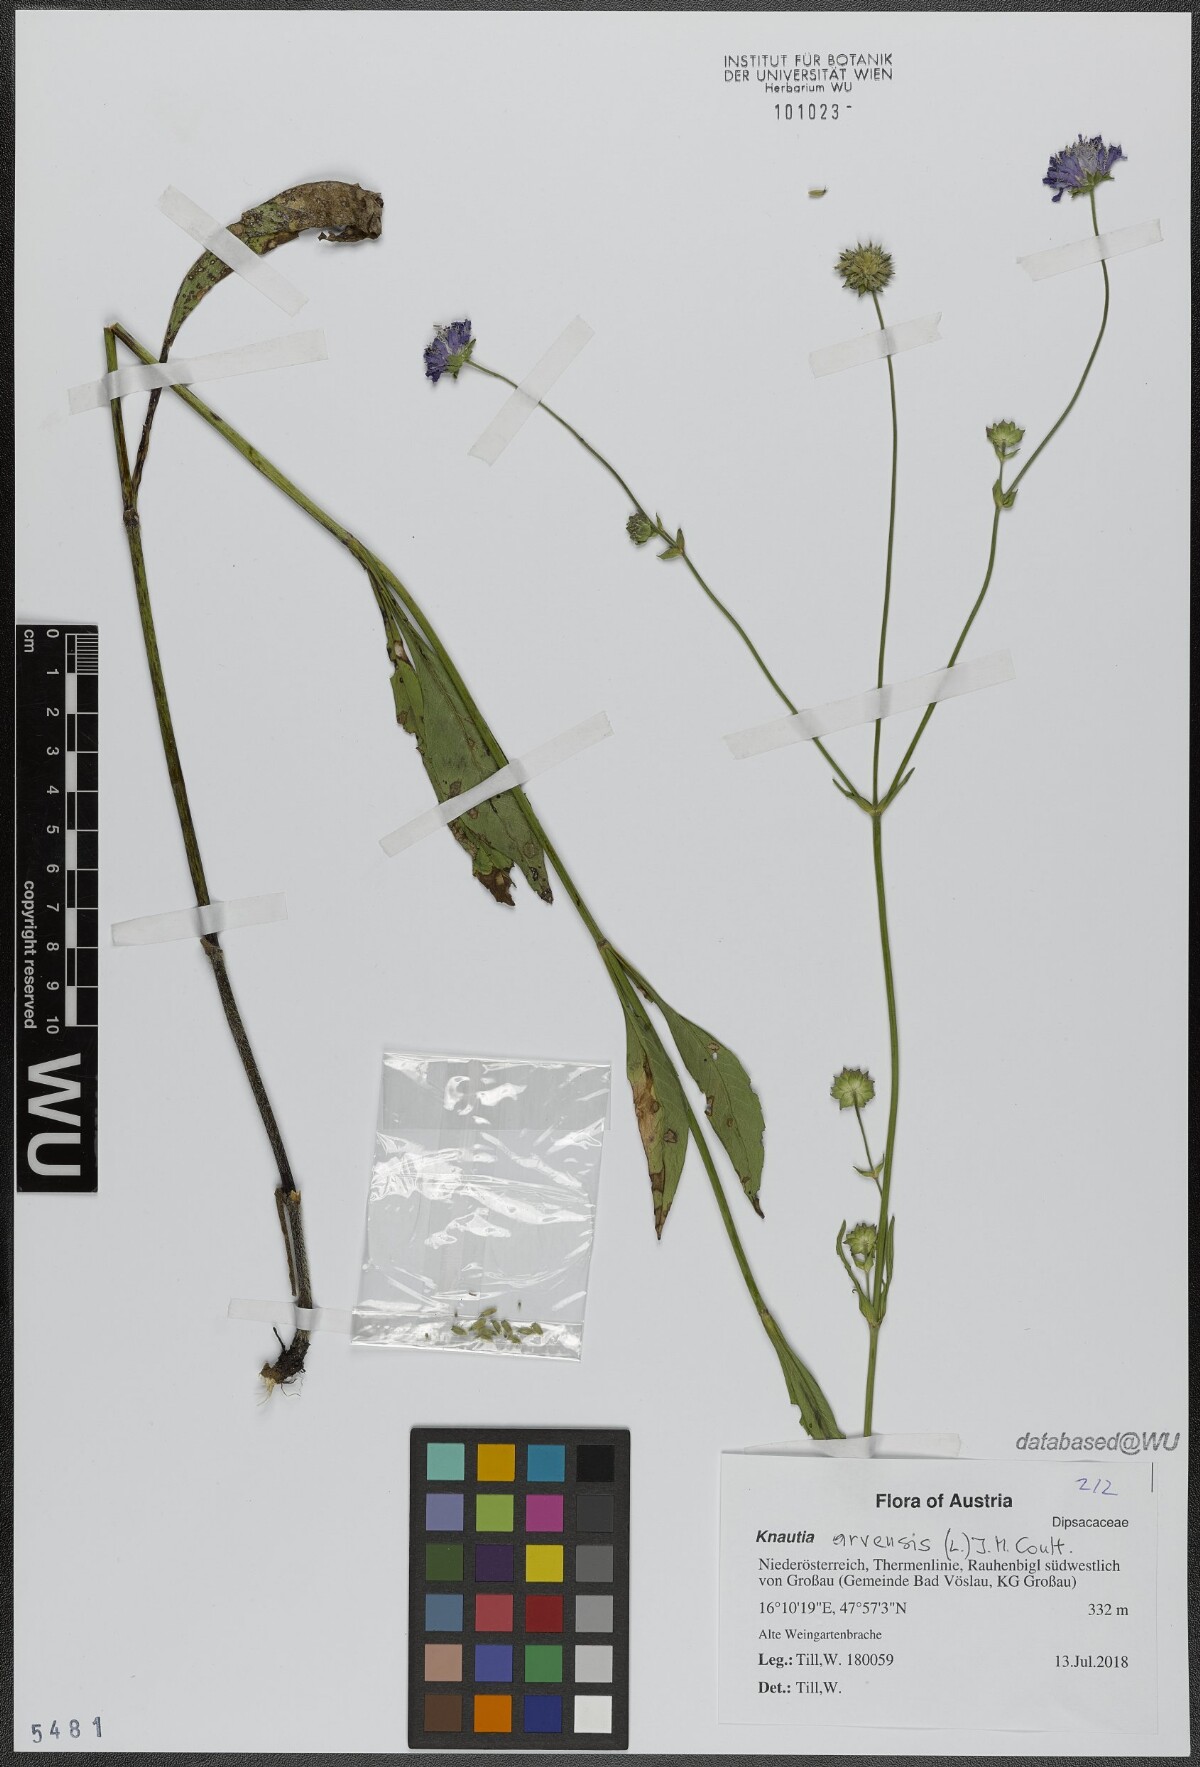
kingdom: Plantae
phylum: Tracheophyta
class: Magnoliopsida
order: Dipsacales
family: Caprifoliaceae
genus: Knautia
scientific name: Knautia arvensis
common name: Field scabiosa
